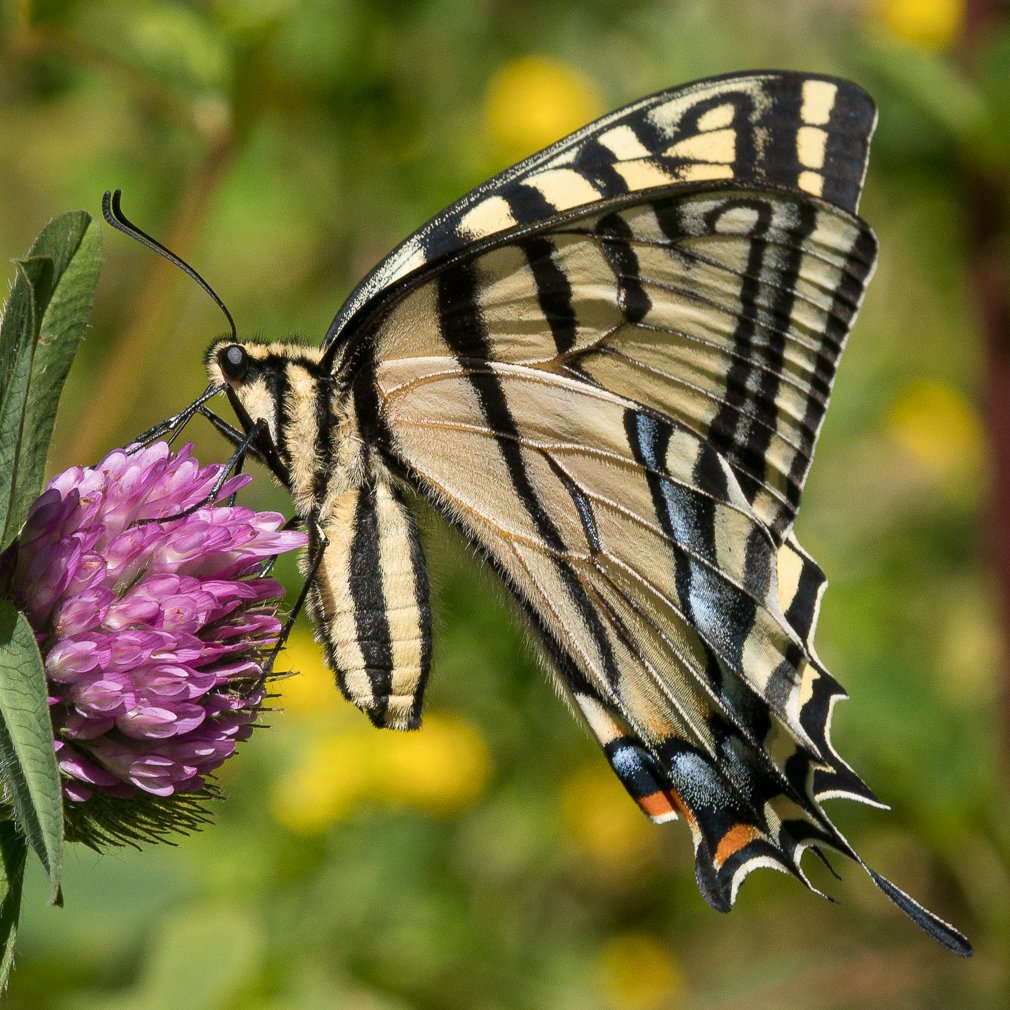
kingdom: Animalia
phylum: Arthropoda
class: Insecta
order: Lepidoptera
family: Papilionidae
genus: Papilio
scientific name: Papilio multicaudata
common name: Two-tailed Swallowtail
